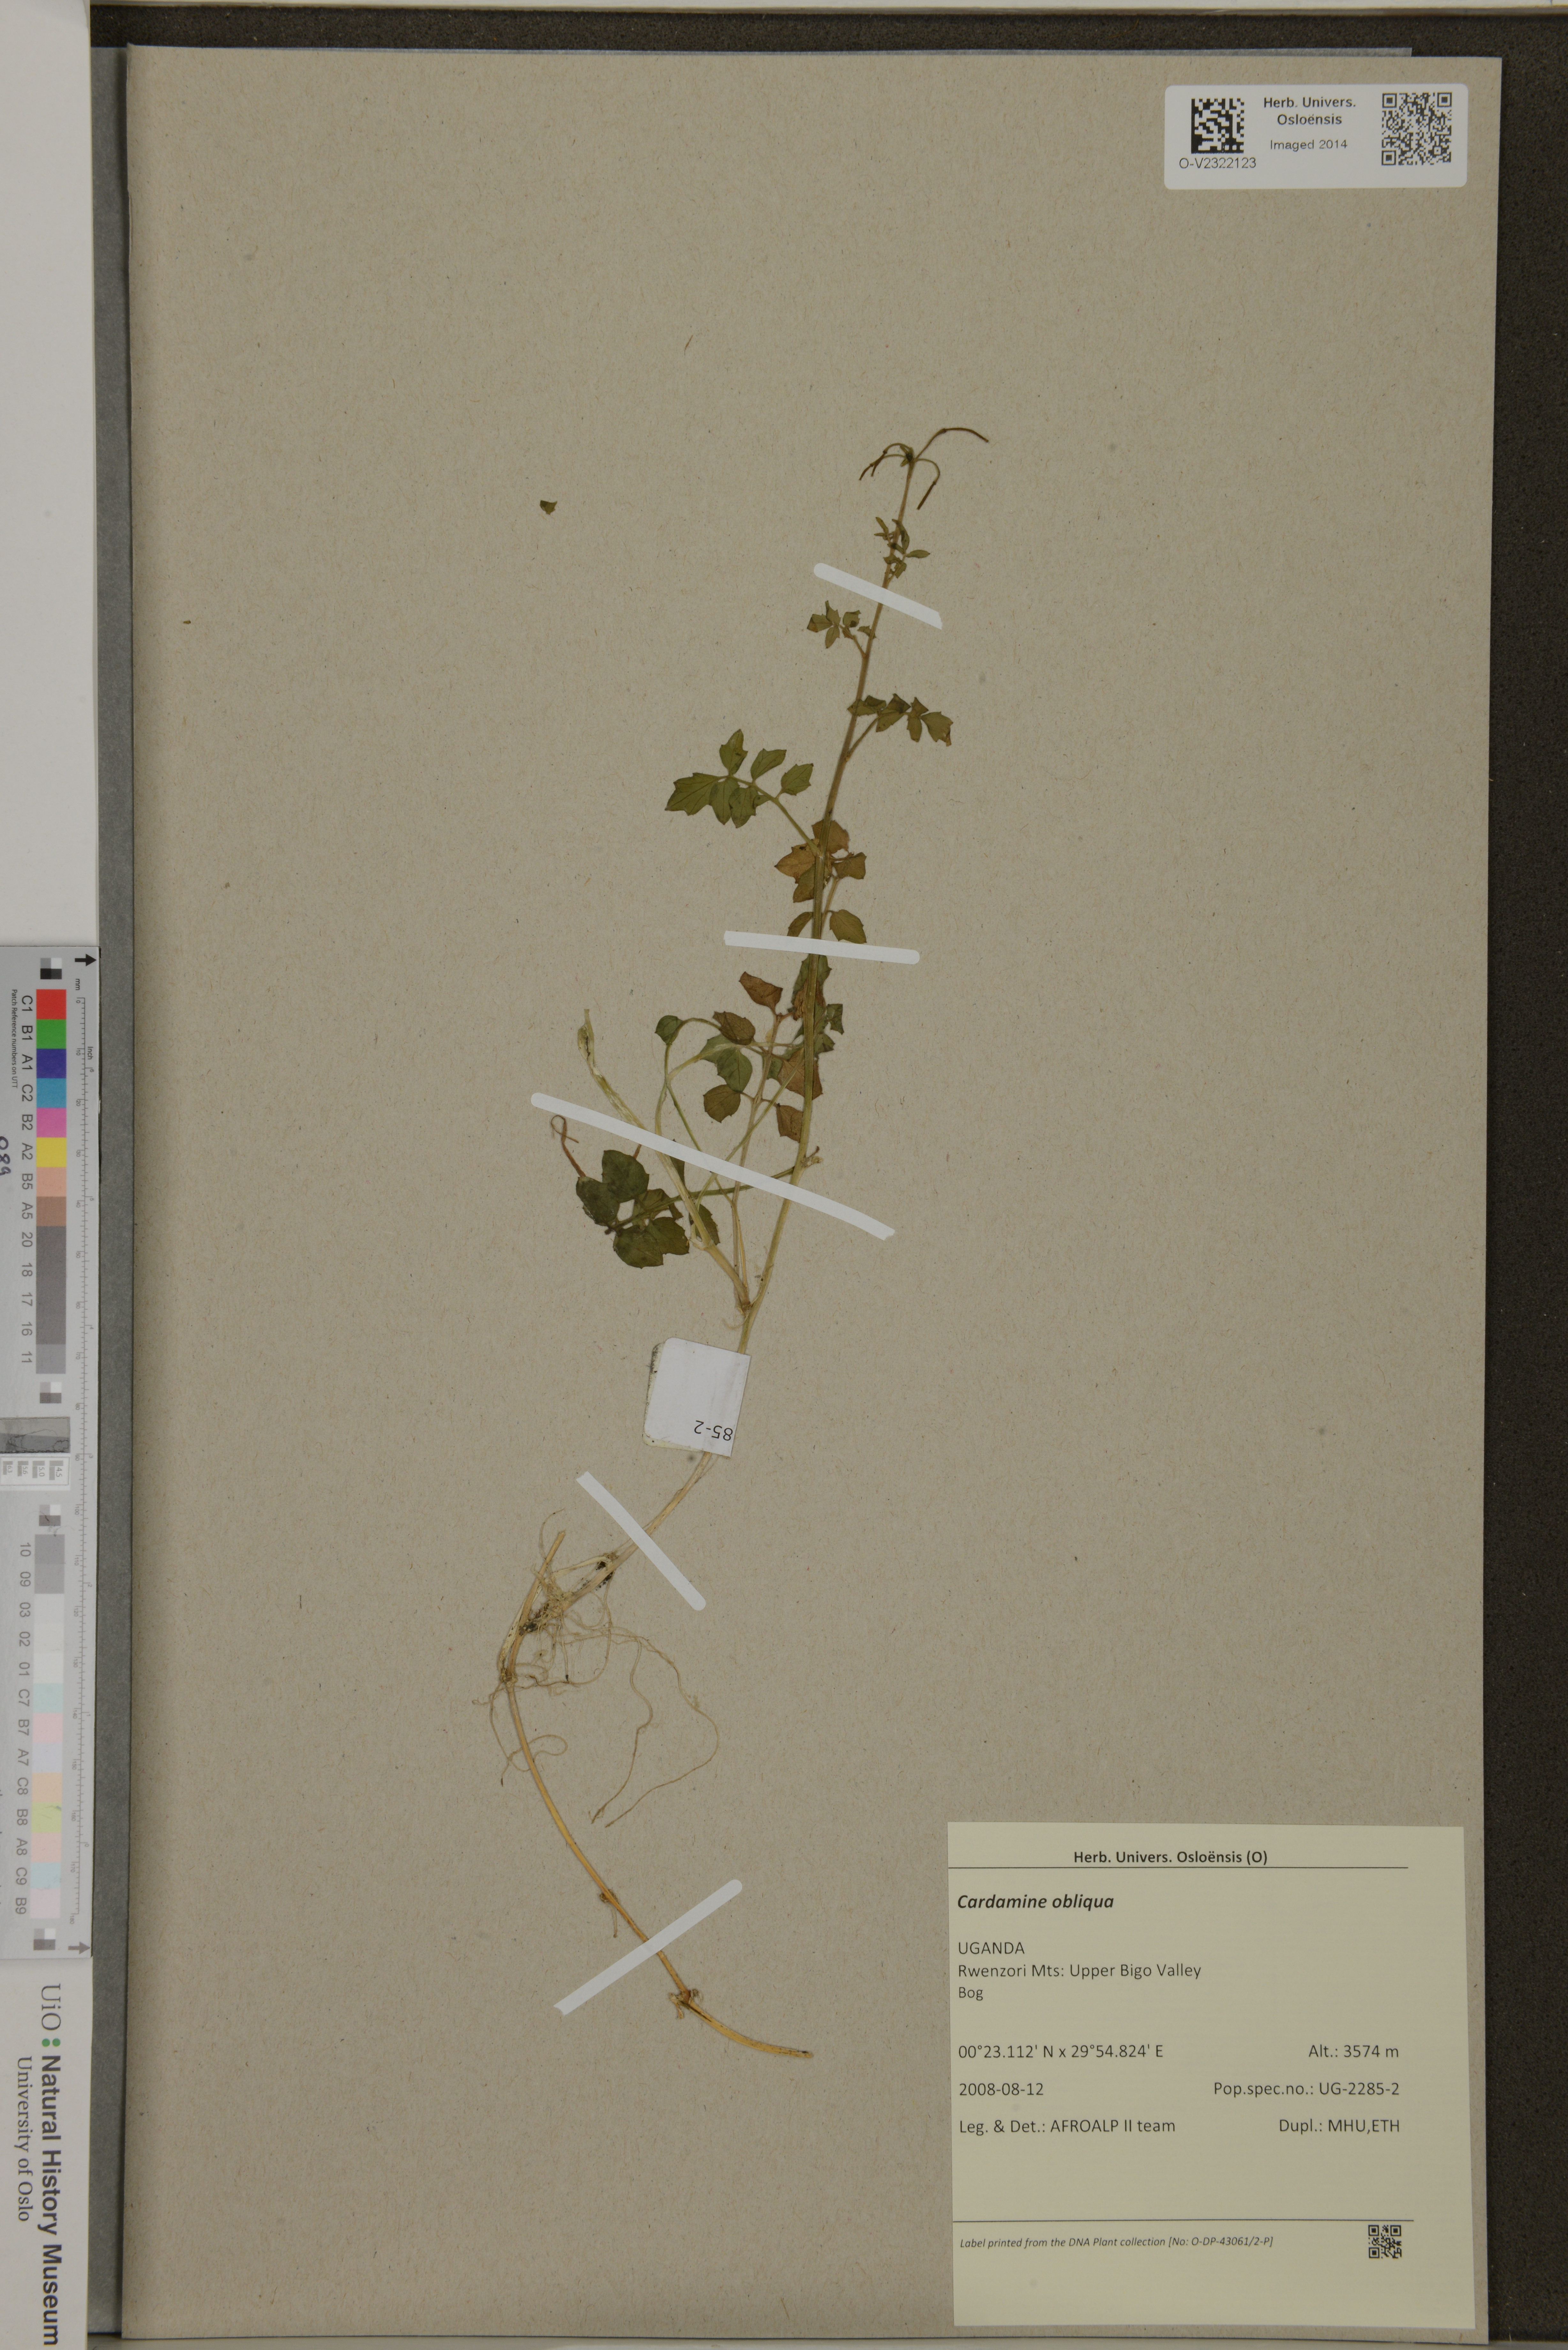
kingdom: Plantae
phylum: Tracheophyta
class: Magnoliopsida
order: Brassicales
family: Brassicaceae
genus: Cardamine
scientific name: Cardamine obliqua
